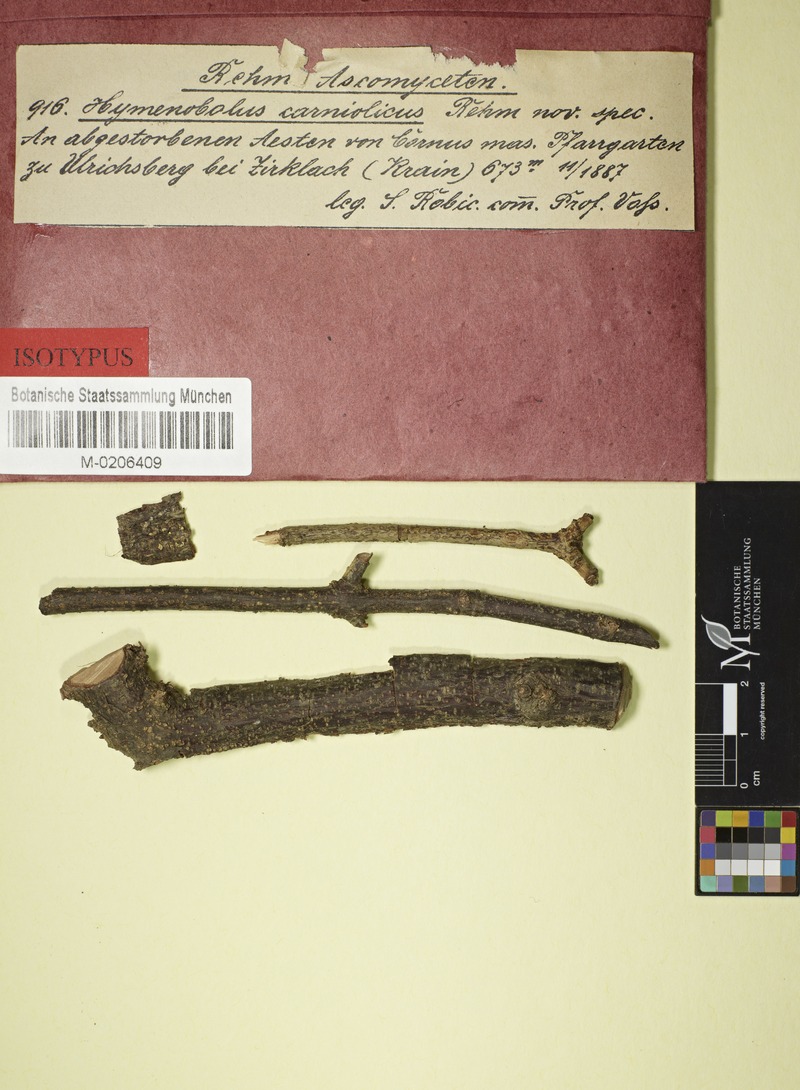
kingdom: Fungi
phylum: Ascomycota
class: Lecanoromycetes
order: Ostropales
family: Stictidaceae
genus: Stictophacidium
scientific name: Stictophacidium carniolicum
